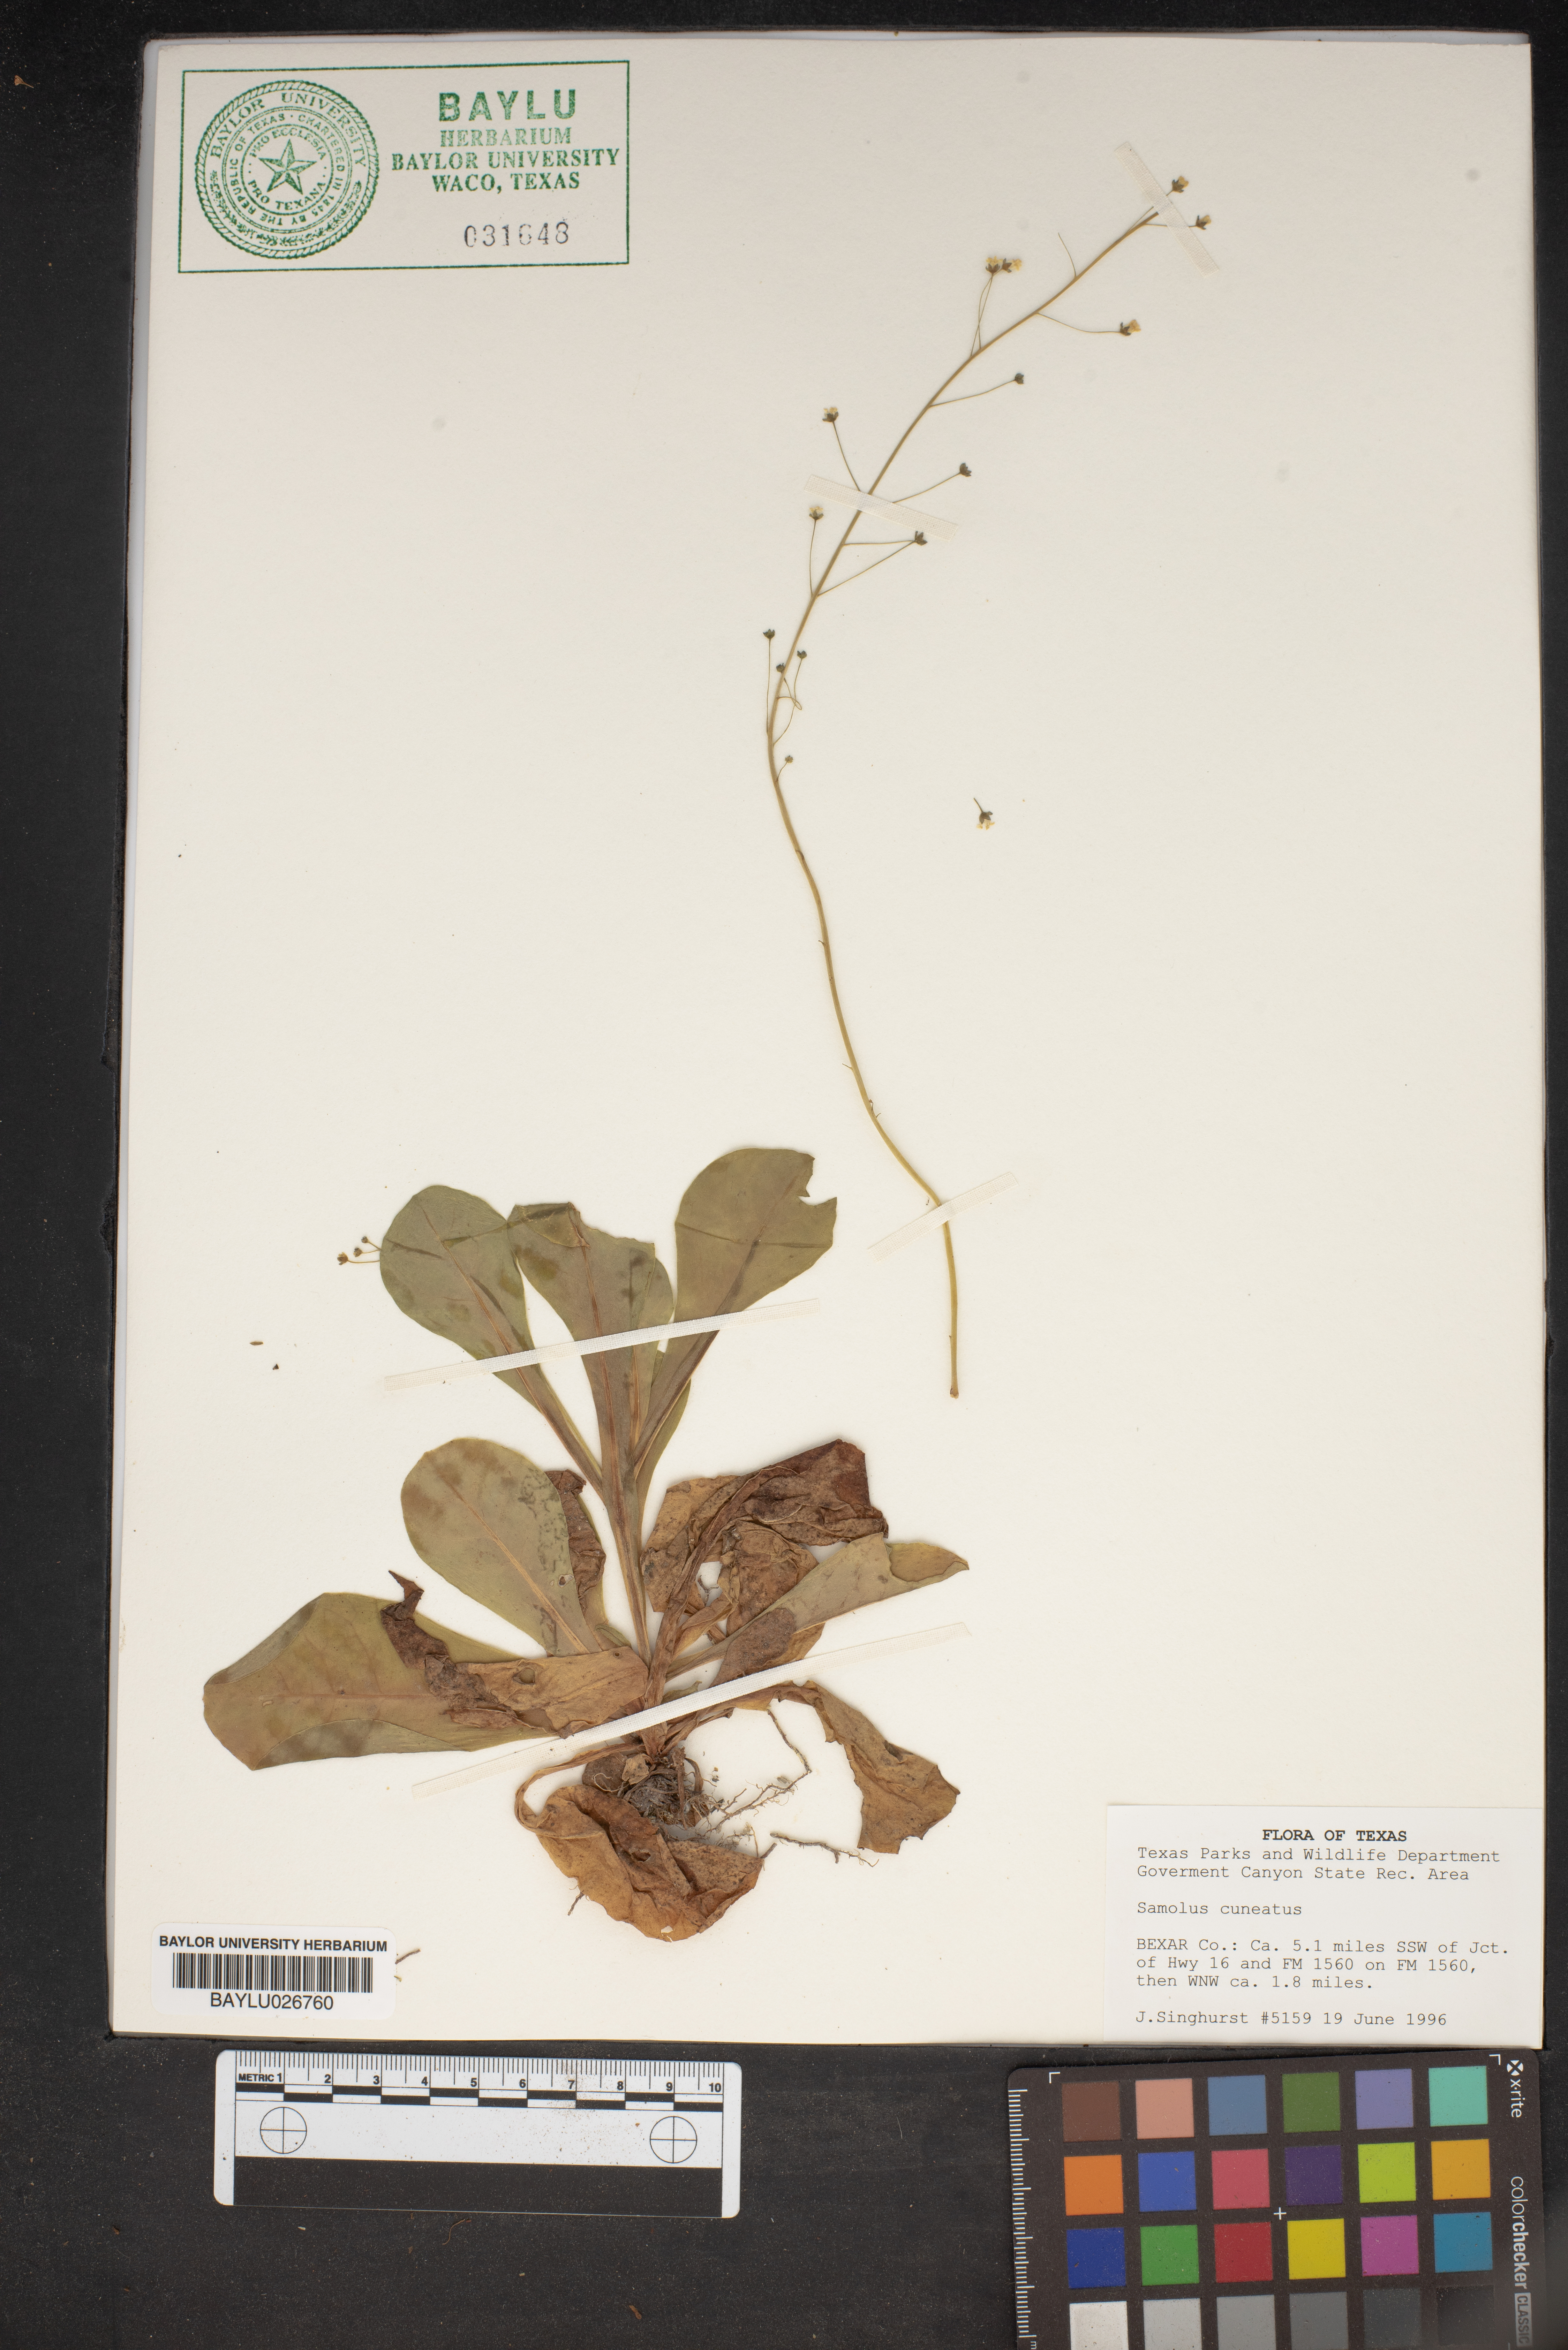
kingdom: Plantae
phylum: Tracheophyta
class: Magnoliopsida
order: Ericales
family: Primulaceae
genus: Samolus
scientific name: Samolus ebracteatus
